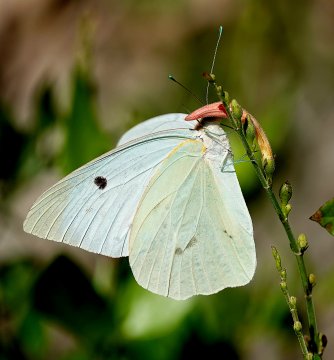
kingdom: Animalia
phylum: Arthropoda
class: Insecta
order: Lepidoptera
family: Pieridae
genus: Ganyra
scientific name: Ganyra josephina
